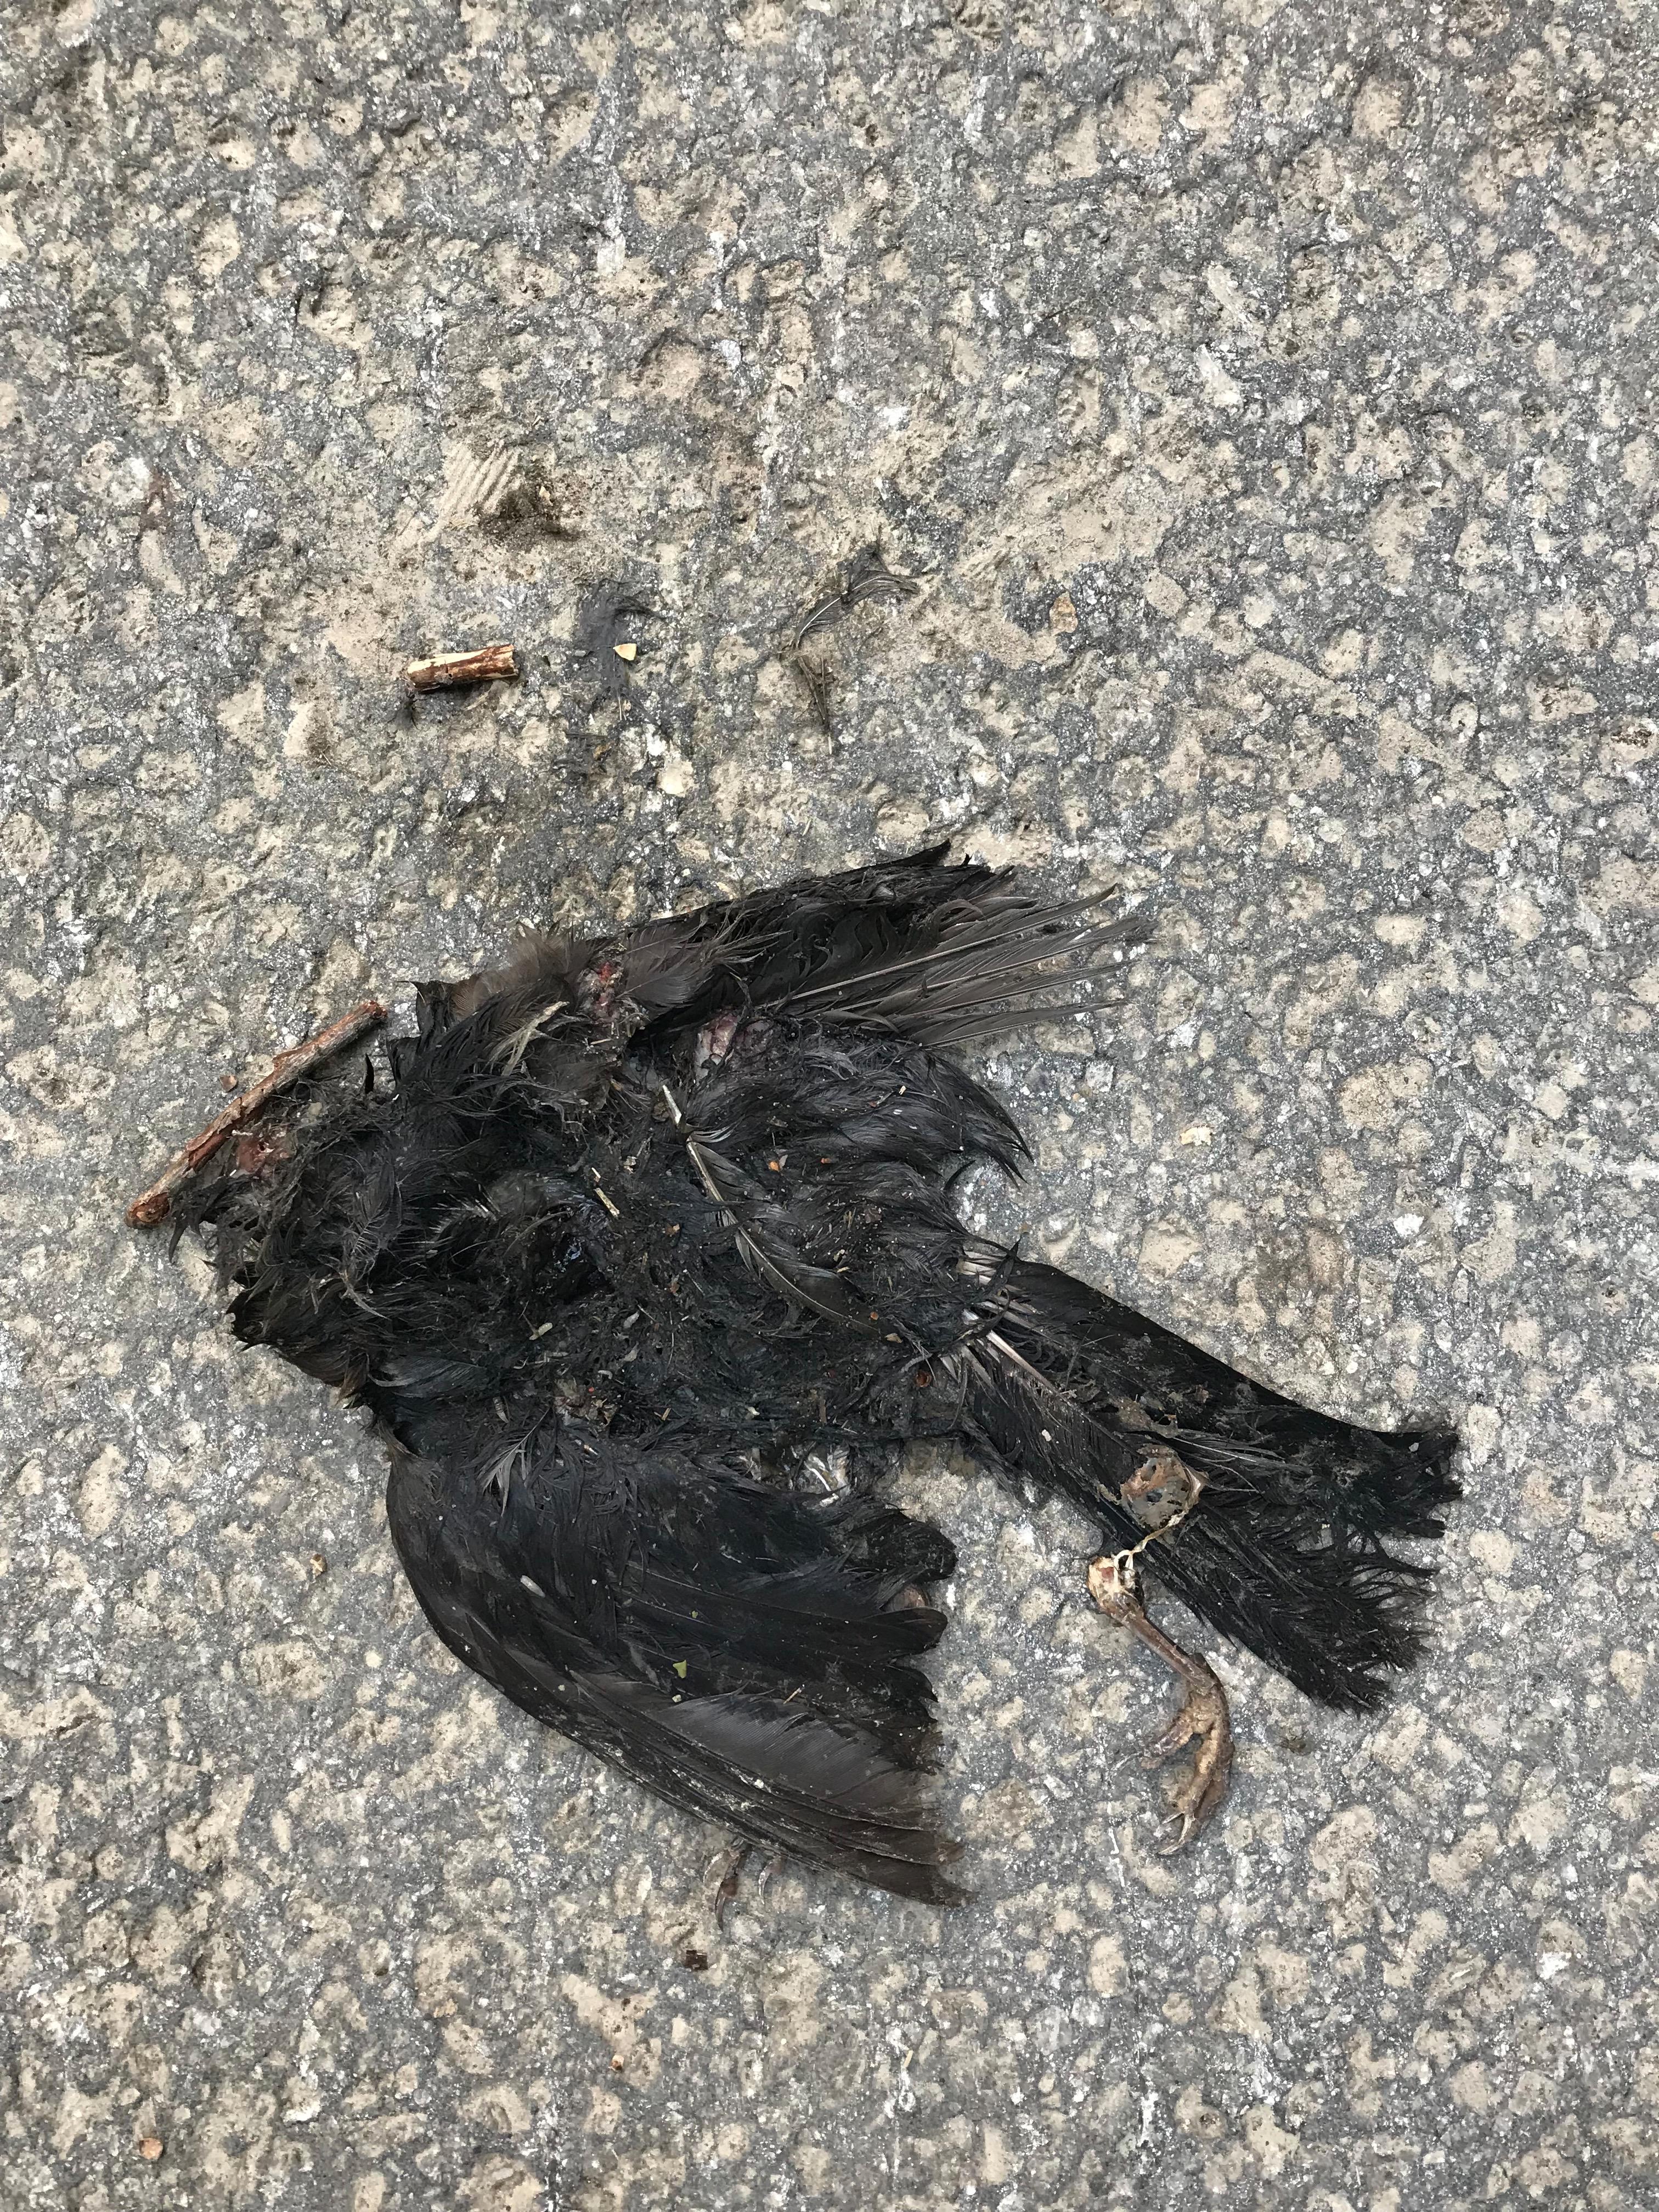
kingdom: Animalia
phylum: Chordata
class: Aves
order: Passeriformes
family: Turdidae
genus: Turdus
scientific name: Turdus merula
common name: Common blackbird
